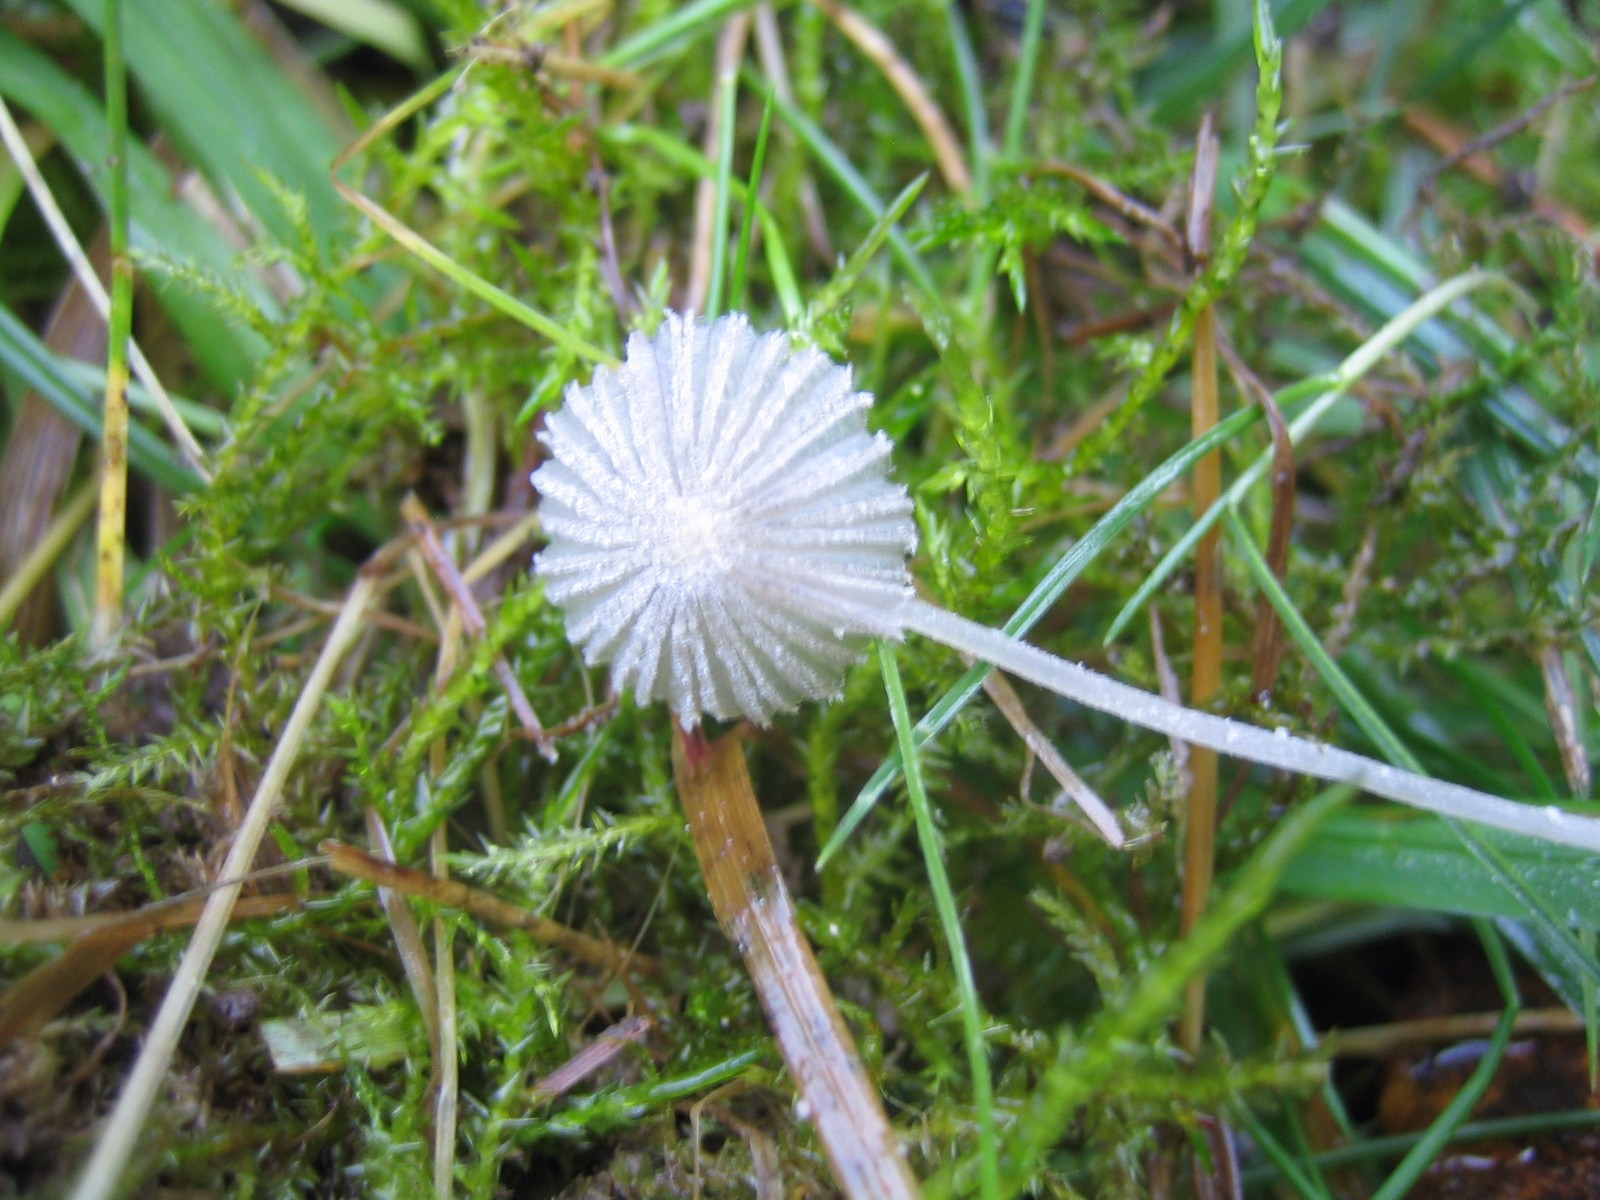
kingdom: Fungi
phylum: Basidiomycota
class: Agaricomycetes
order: Agaricales
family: Psathyrellaceae
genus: Coprinopsis
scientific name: Coprinopsis
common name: blækhat
